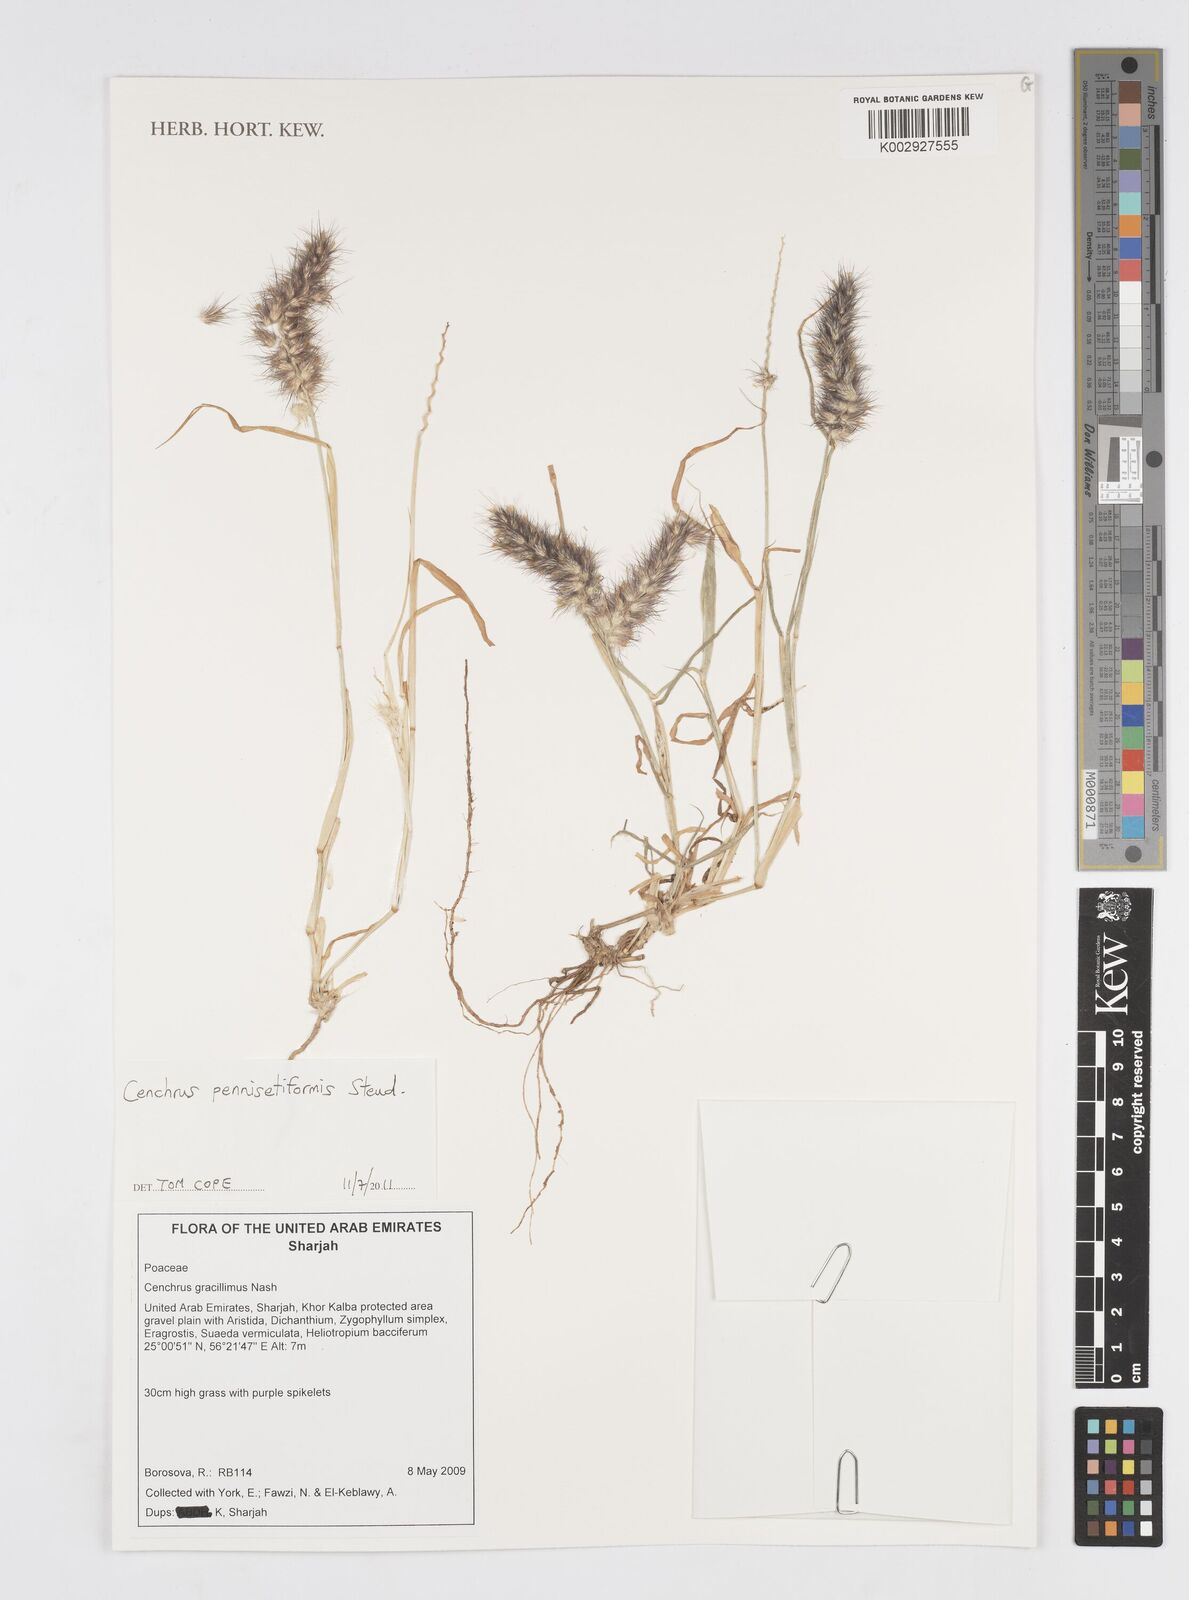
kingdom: Plantae
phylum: Tracheophyta
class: Liliopsida
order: Poales
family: Poaceae
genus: Cenchrus
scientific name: Cenchrus pennisetiformis
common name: Cloncurry
